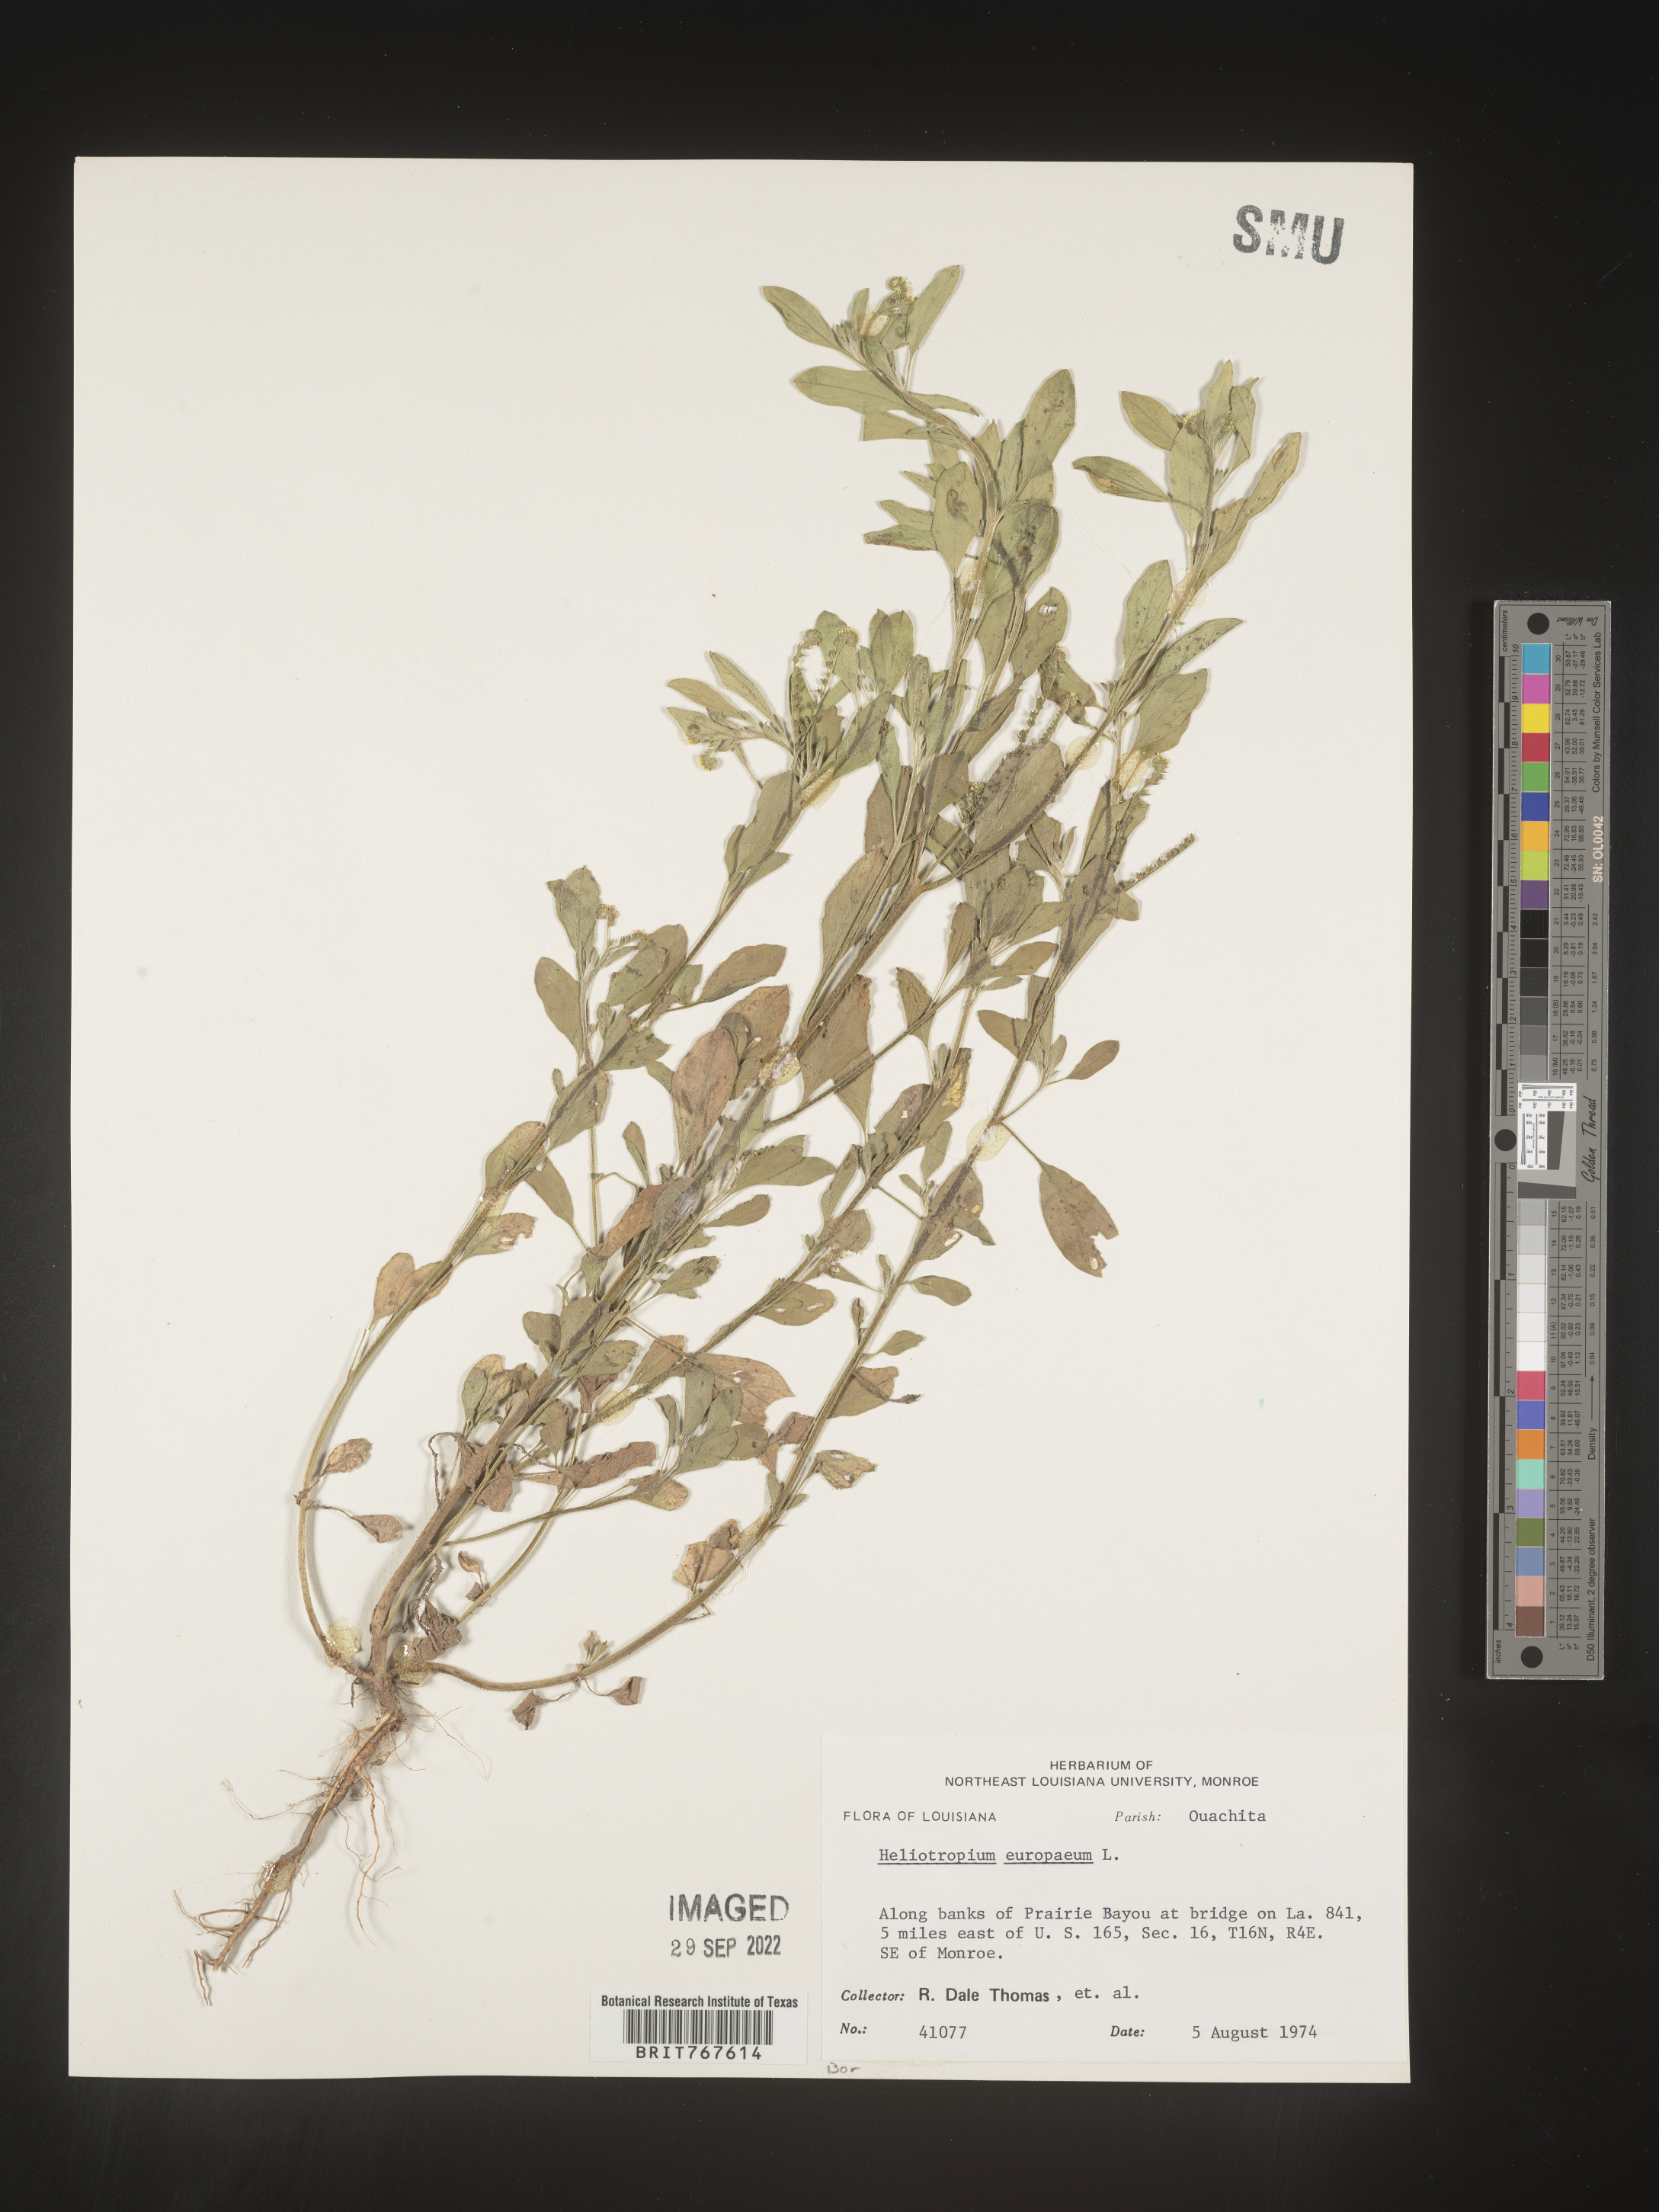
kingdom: Plantae
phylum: Tracheophyta
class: Magnoliopsida
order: Boraginales
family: Heliotropiaceae
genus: Heliotropium
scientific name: Heliotropium
